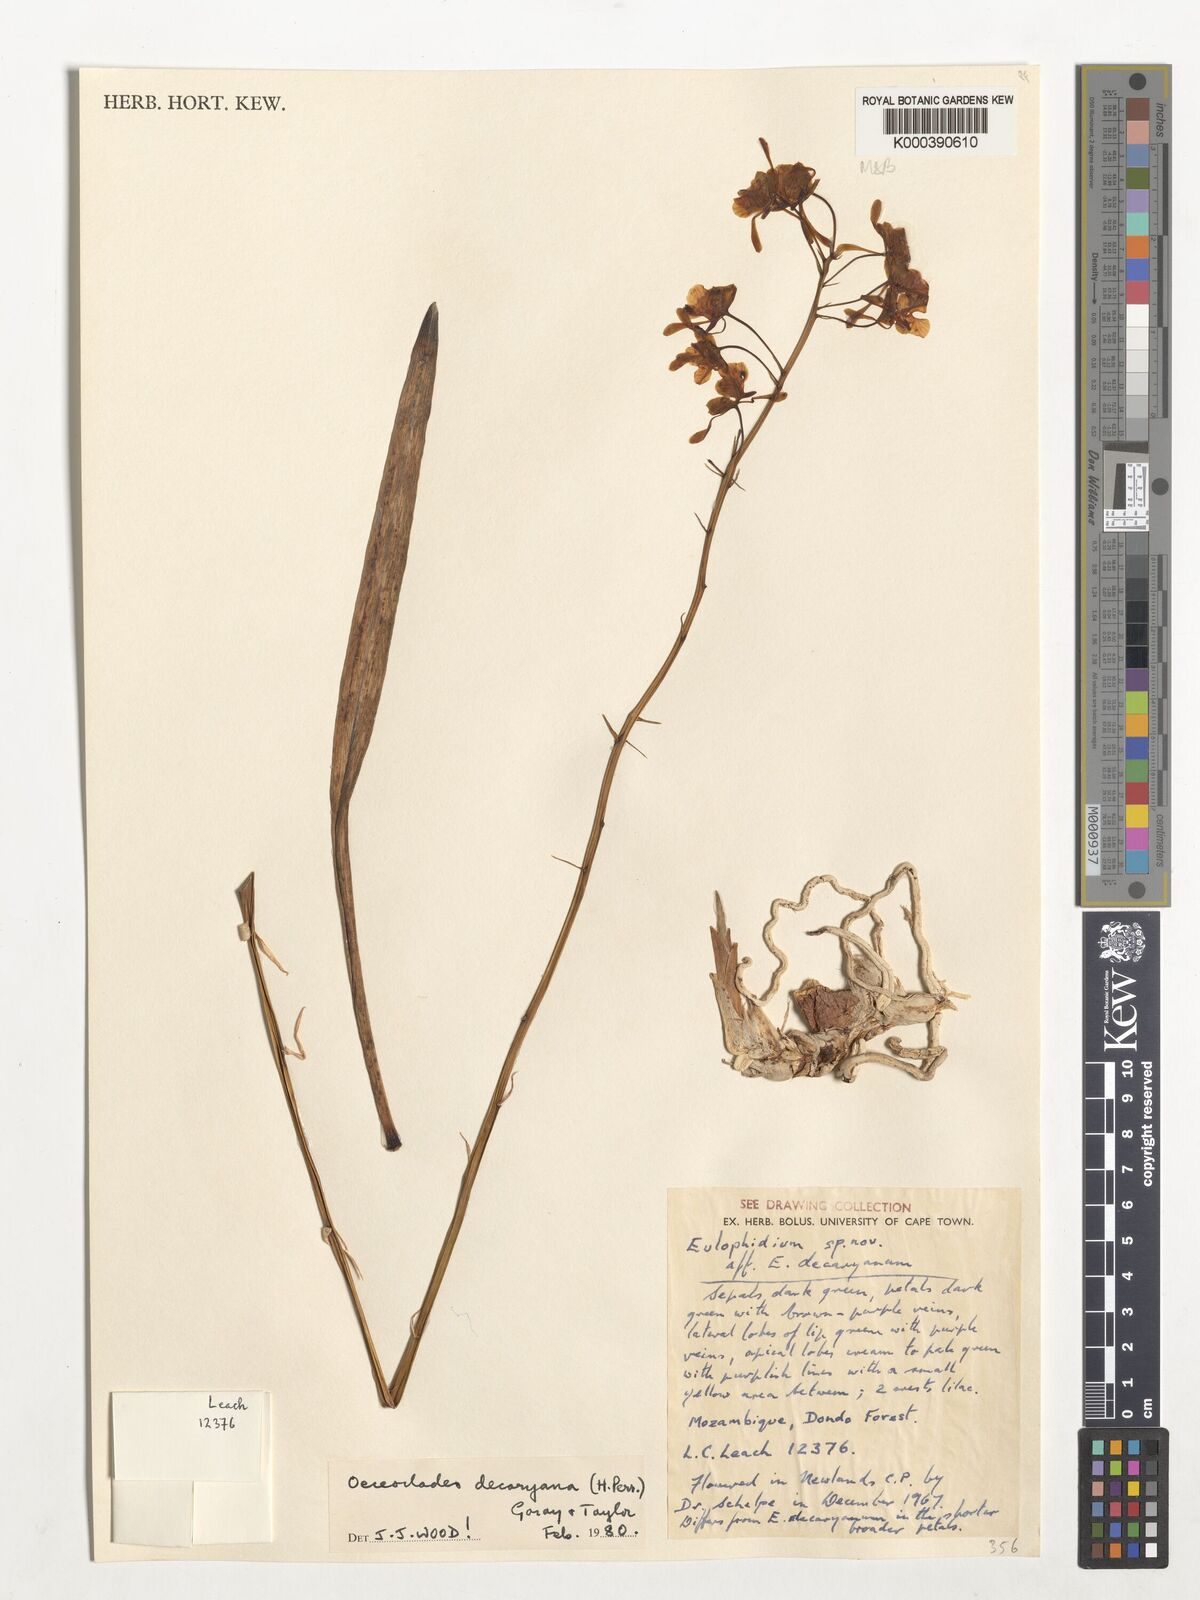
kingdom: Plantae
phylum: Tracheophyta
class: Liliopsida
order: Asparagales
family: Orchidaceae
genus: Eulophia
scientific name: Eulophia decaryana
